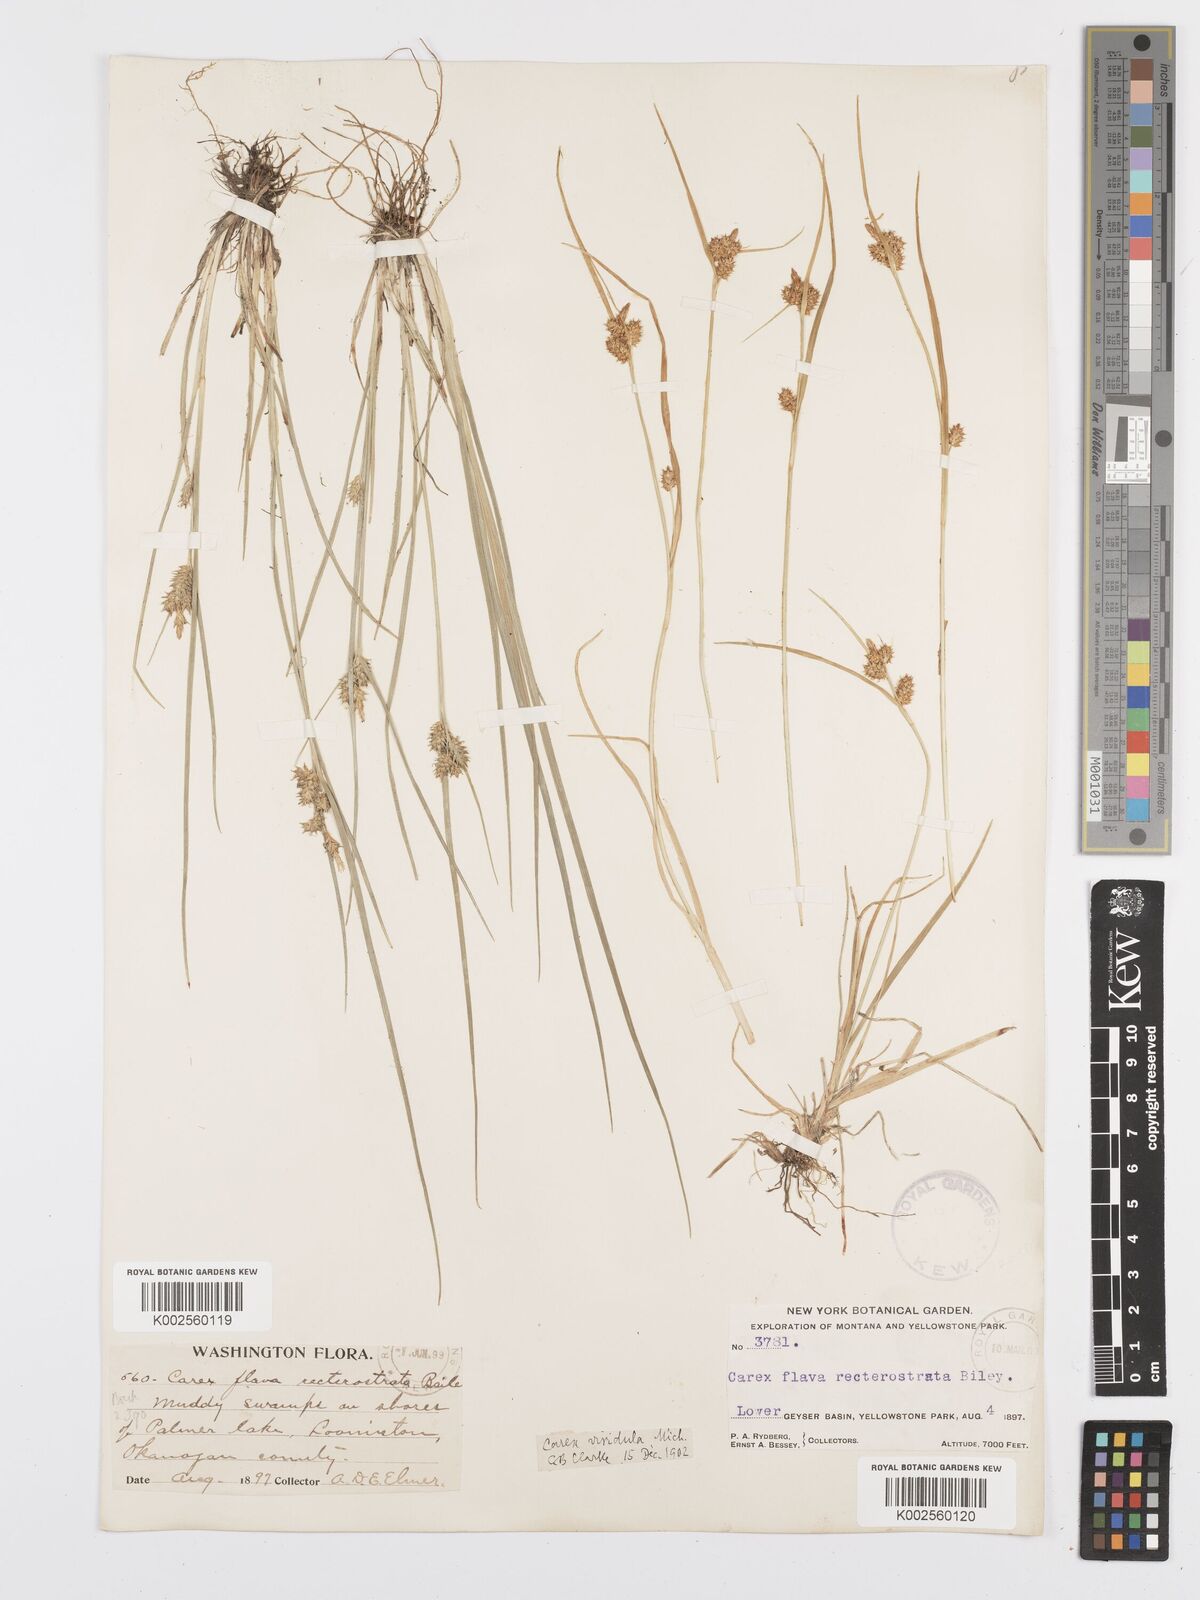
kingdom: Plantae
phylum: Tracheophyta
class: Liliopsida
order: Poales
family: Cyperaceae
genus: Carex
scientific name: Carex oederi
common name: Common & small-fruited yellow-sedge
